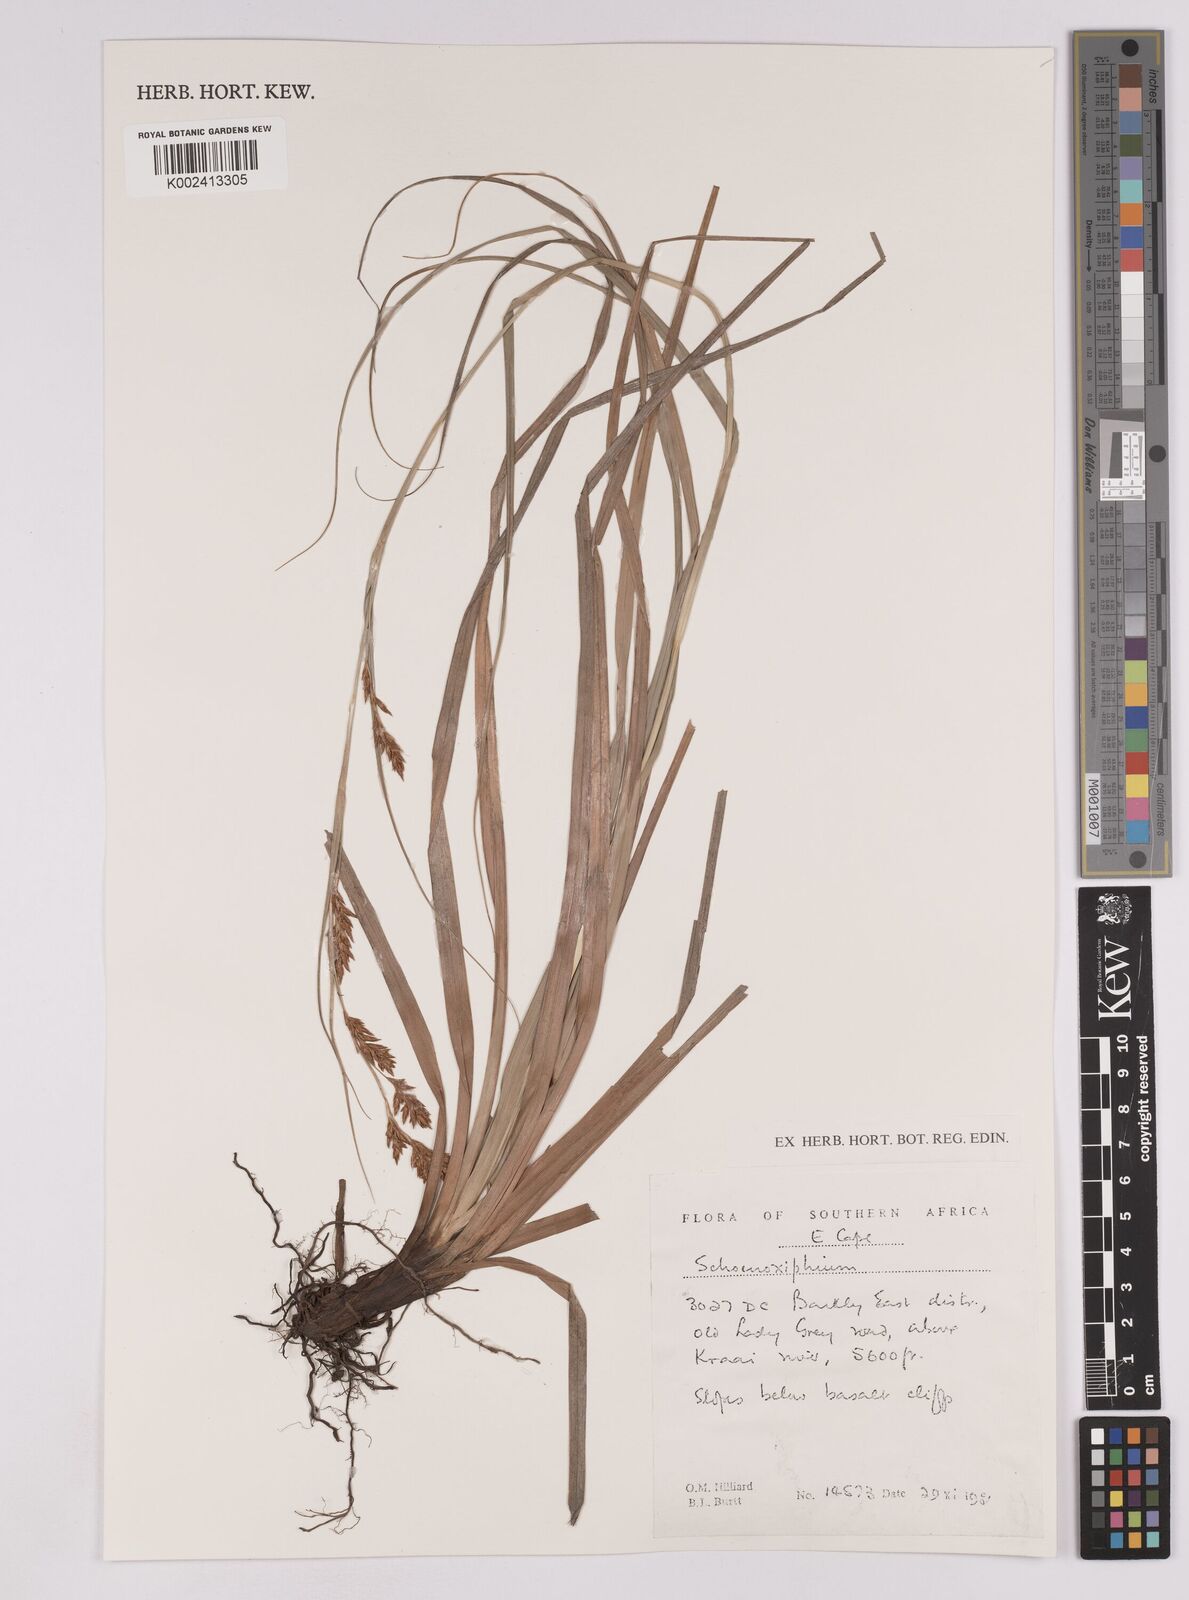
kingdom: Plantae
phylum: Tracheophyta
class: Liliopsida
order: Poales
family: Cyperaceae
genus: Carex
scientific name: Carex
